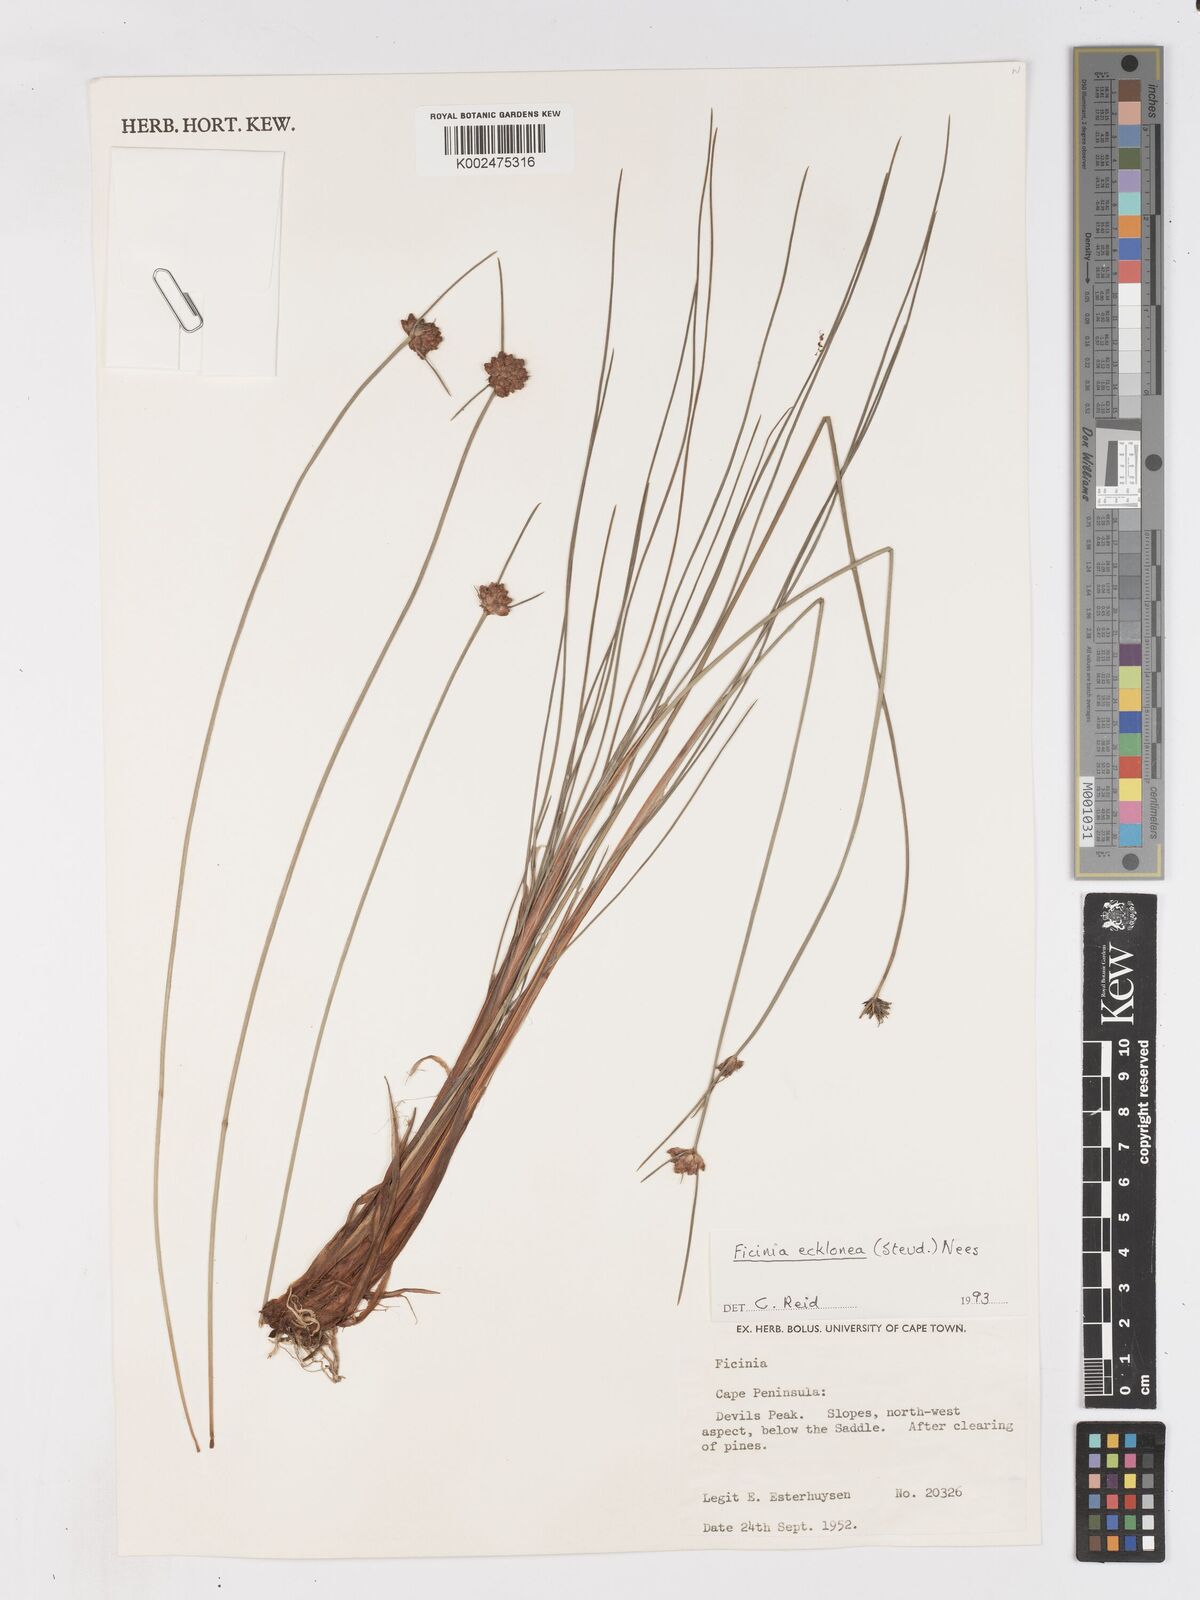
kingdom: Plantae
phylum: Tracheophyta
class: Liliopsida
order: Poales
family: Cyperaceae
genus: Ficinia
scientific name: Ficinia ecklonea
